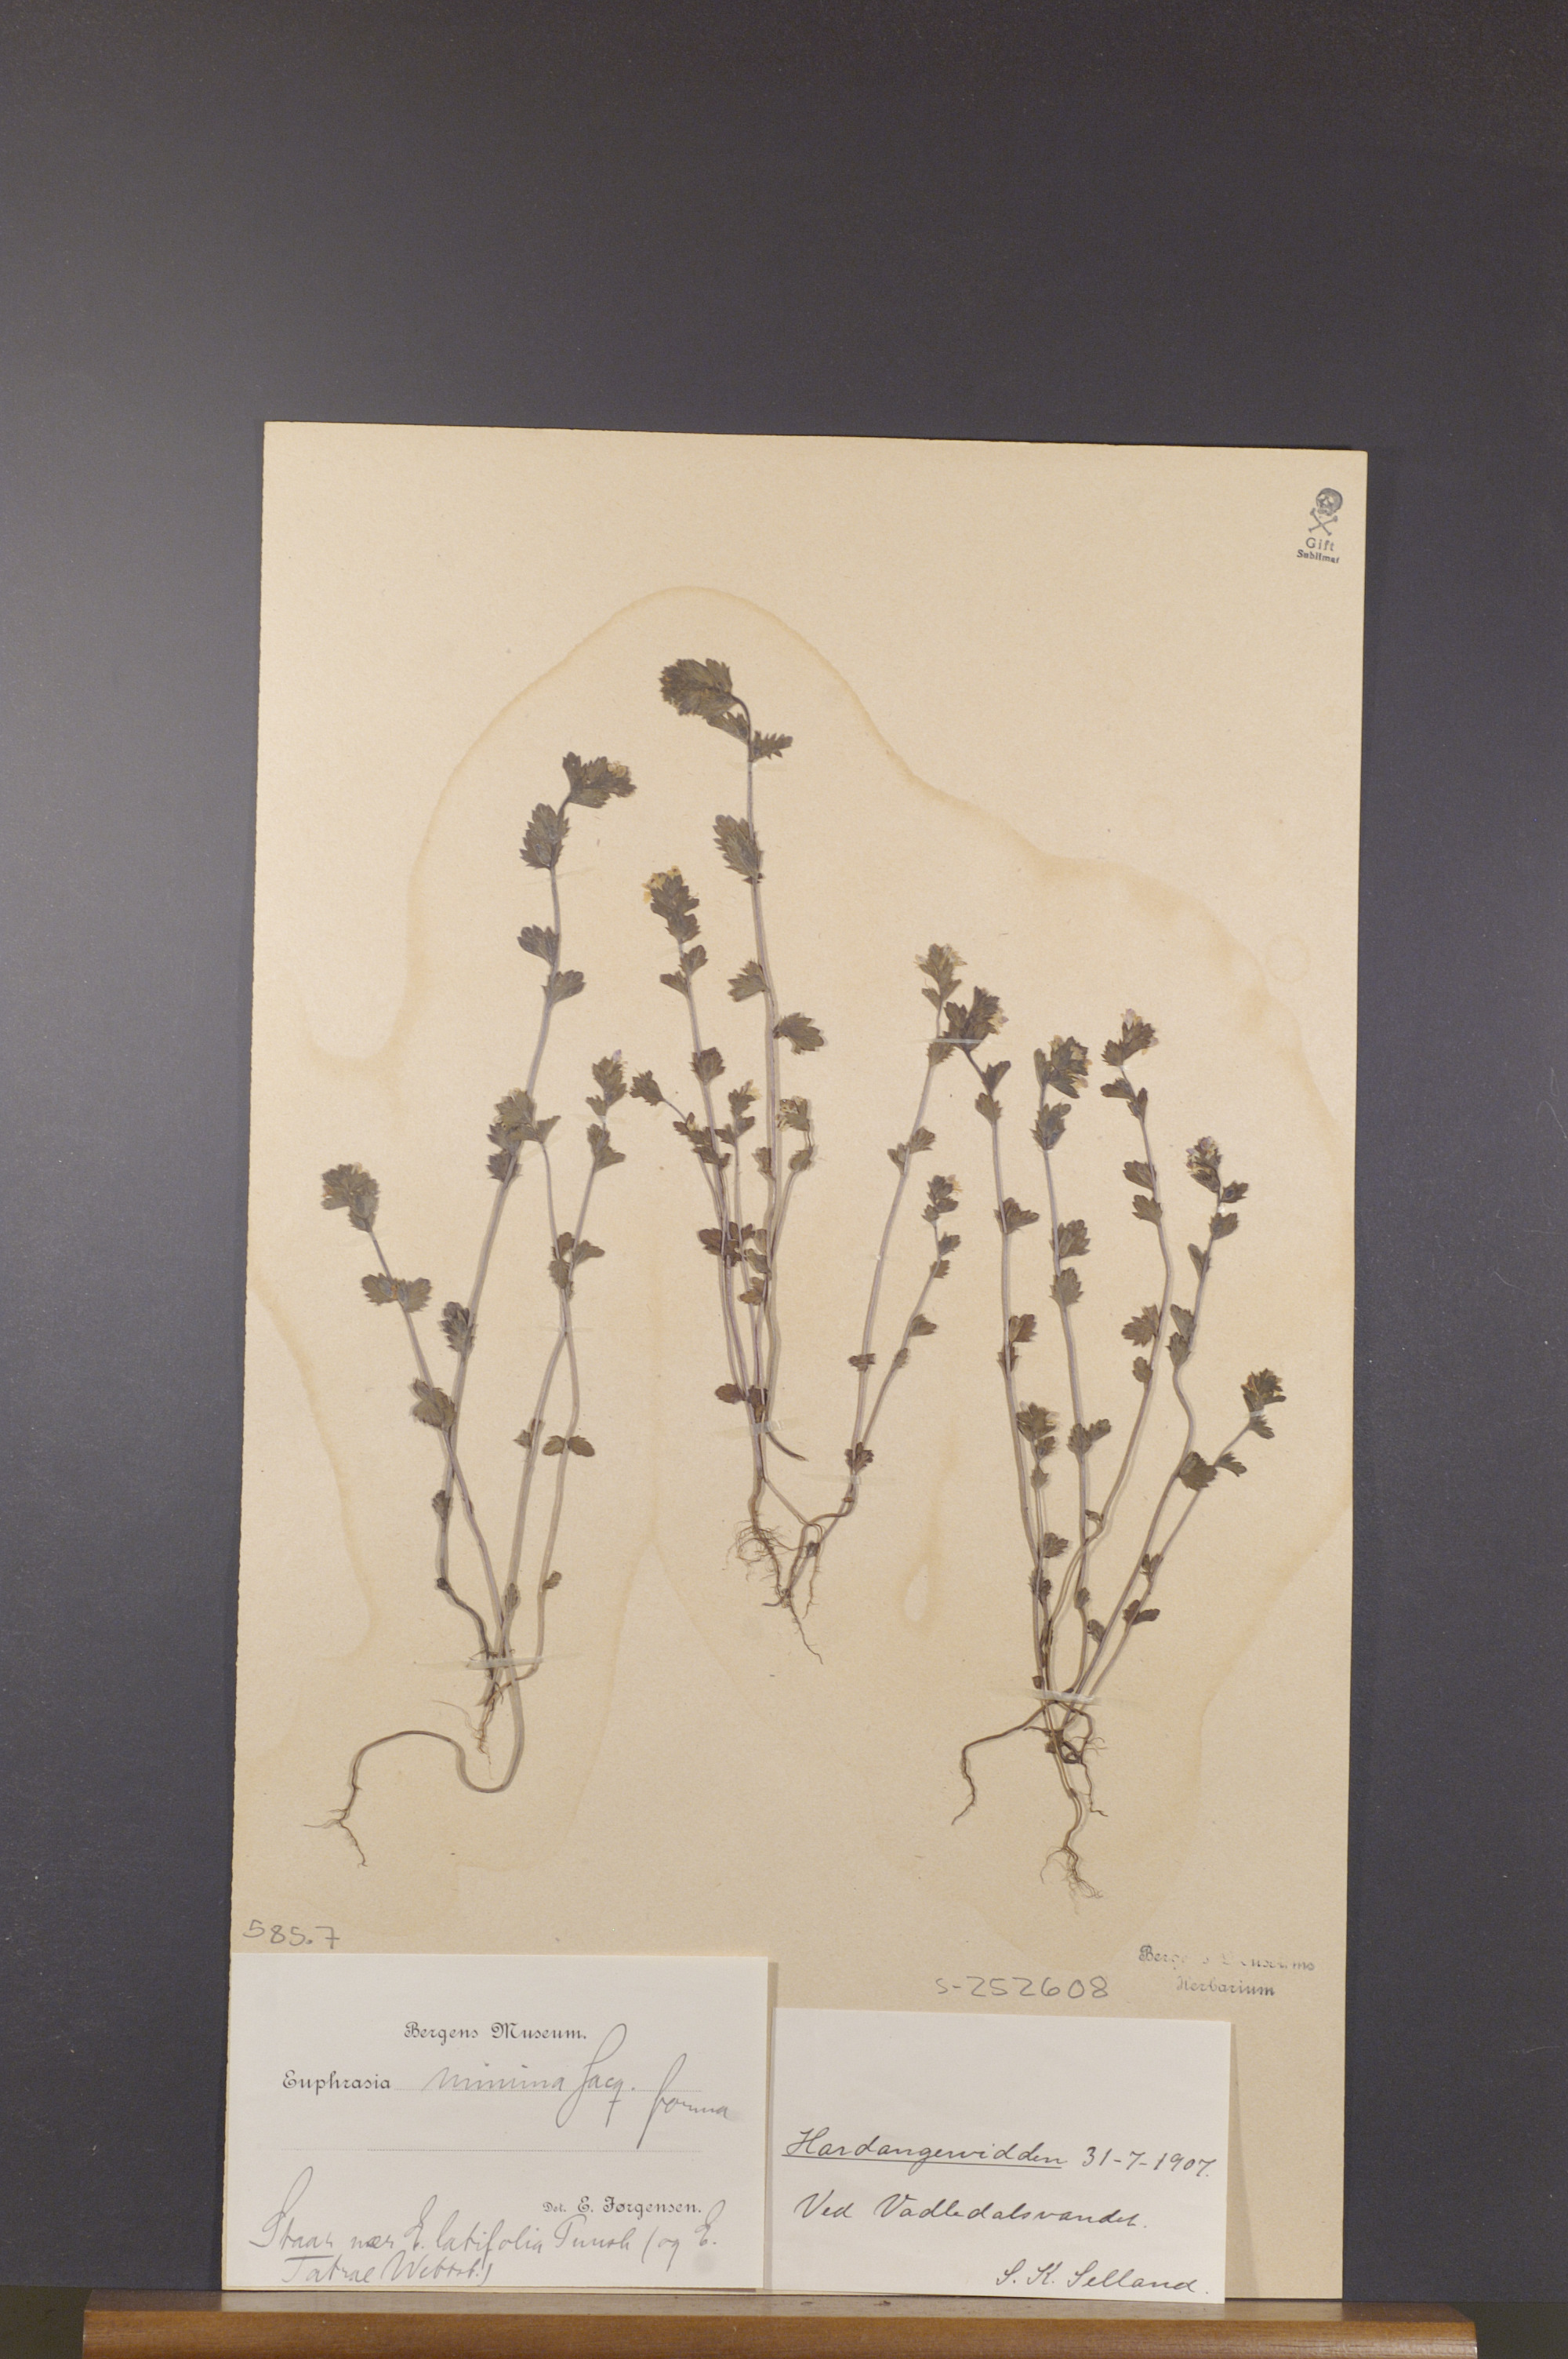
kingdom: Plantae
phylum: Tracheophyta
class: Magnoliopsida
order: Lamiales
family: Orobanchaceae
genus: Euphrasia
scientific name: Euphrasia minima
